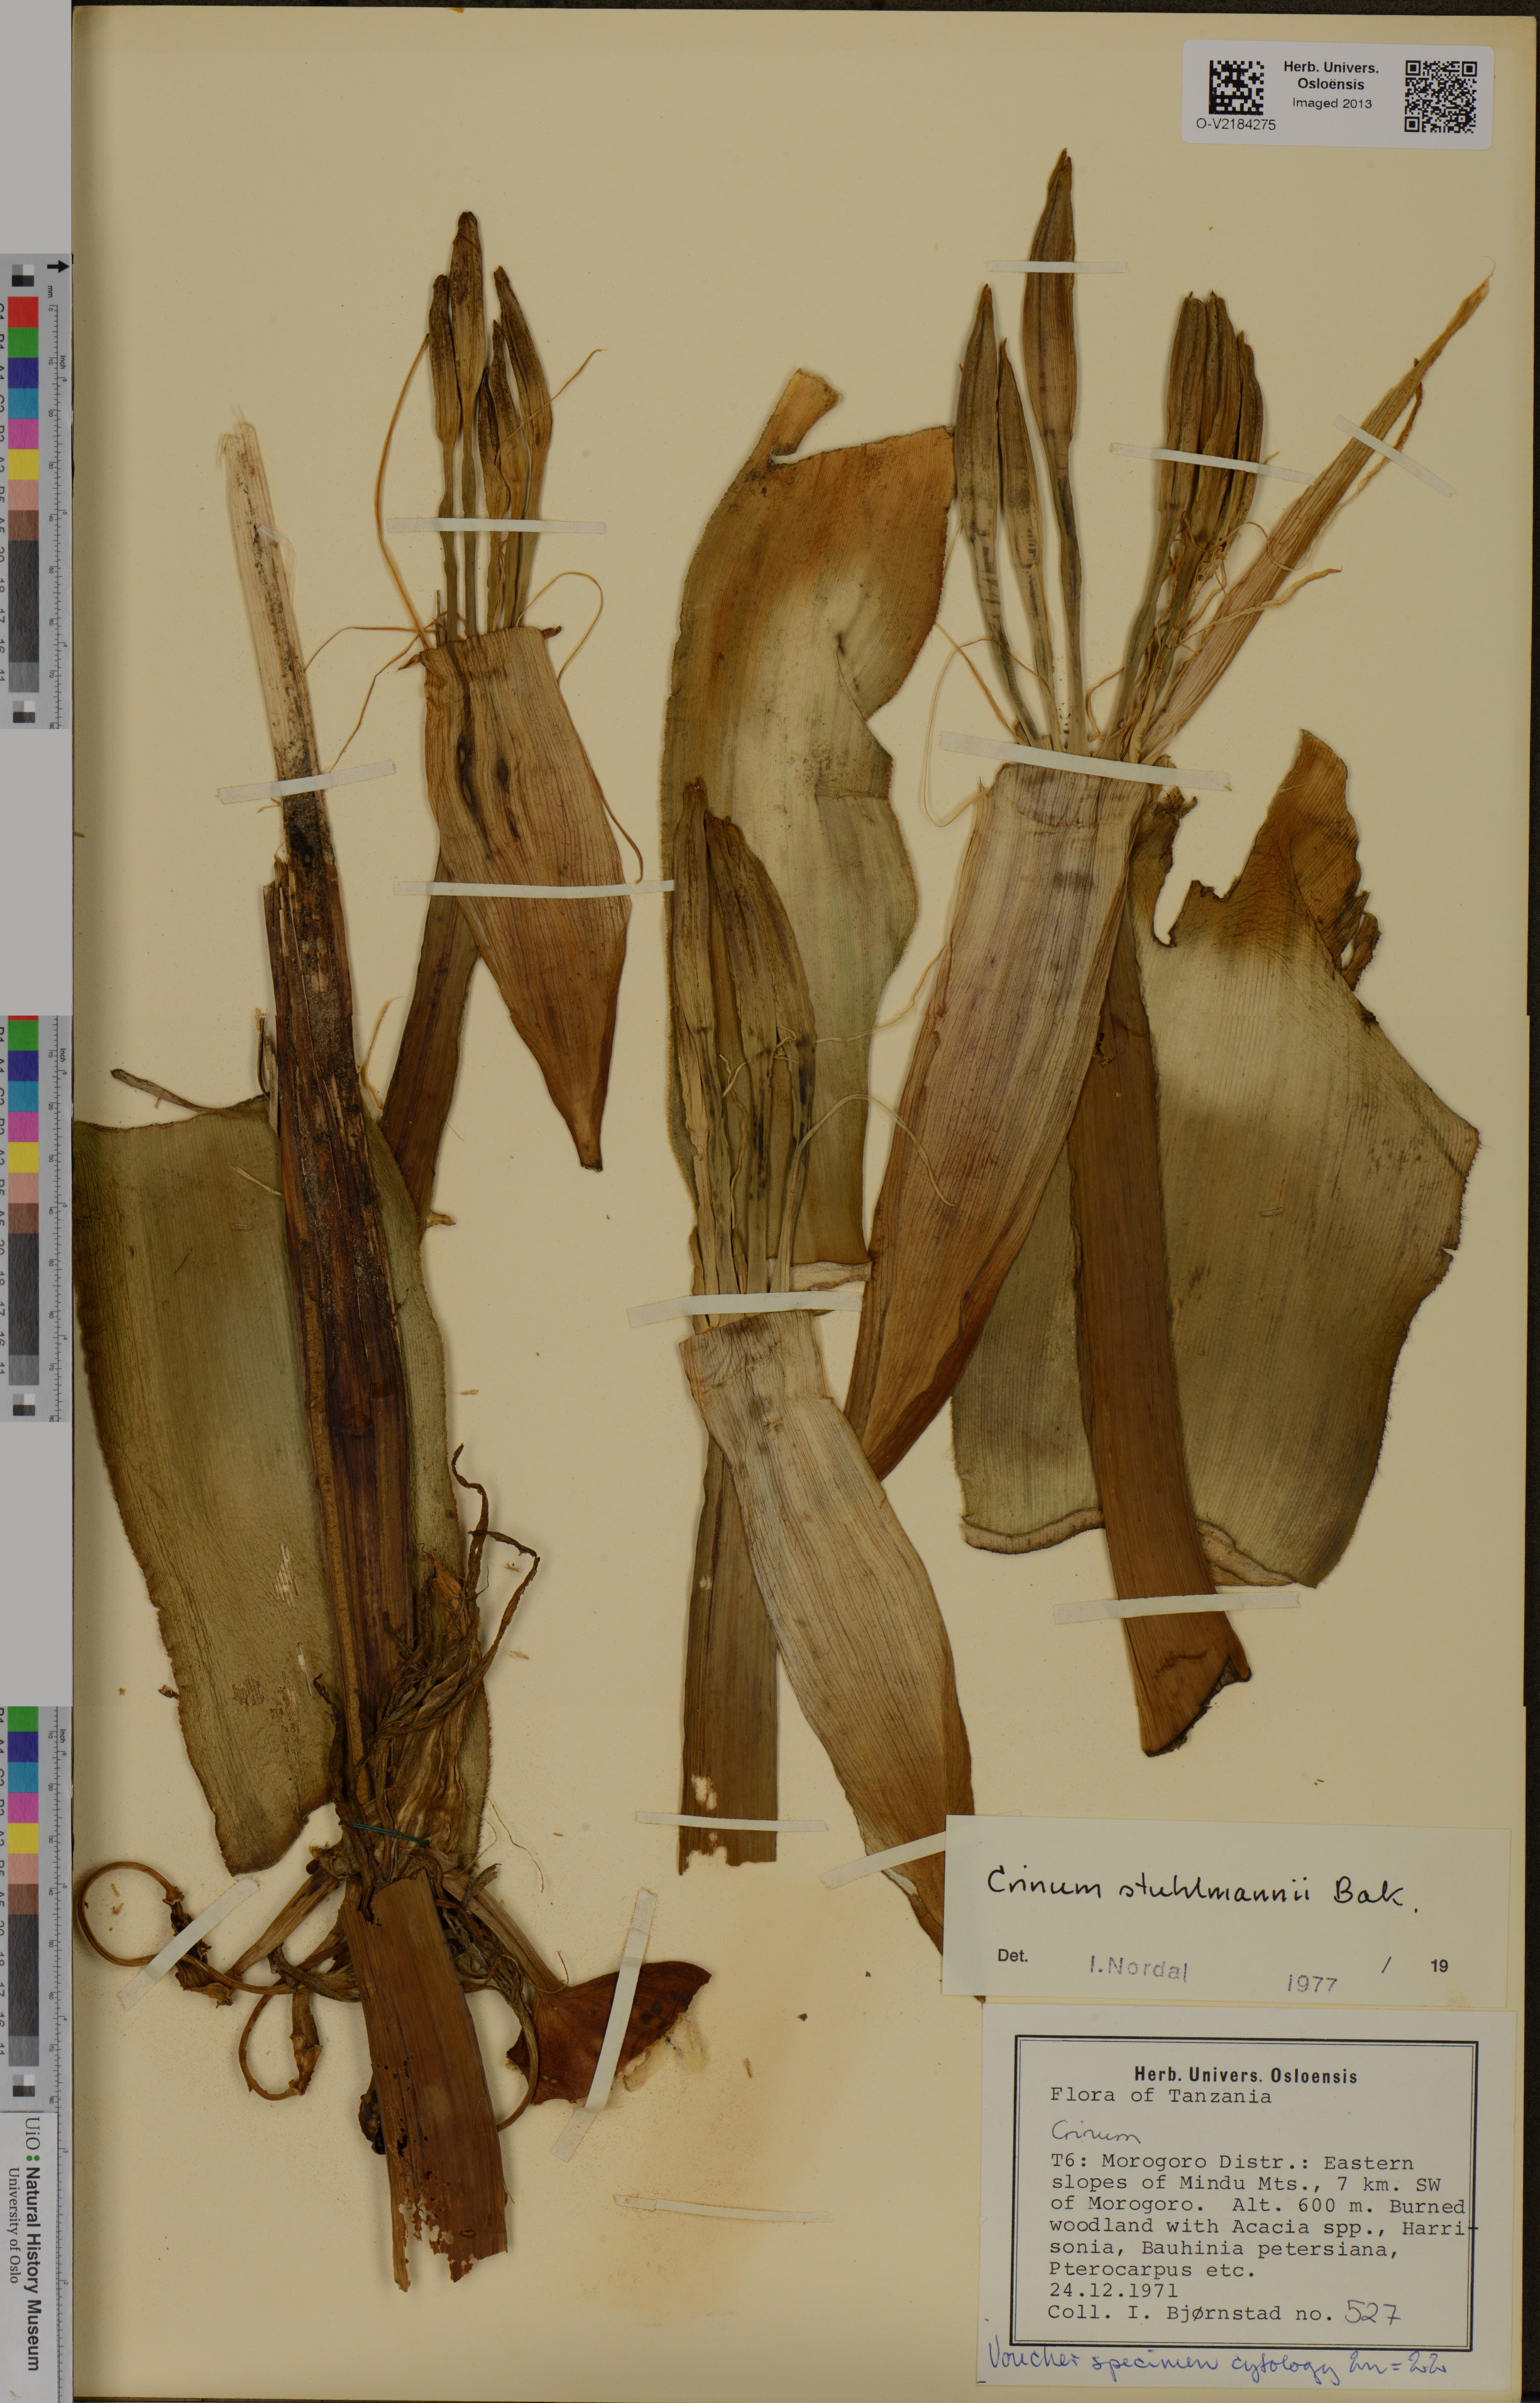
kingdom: Plantae
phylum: Tracheophyta
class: Liliopsida
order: Asparagales
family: Amaryllidaceae
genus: Crinum
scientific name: Crinum stuhlmannii
